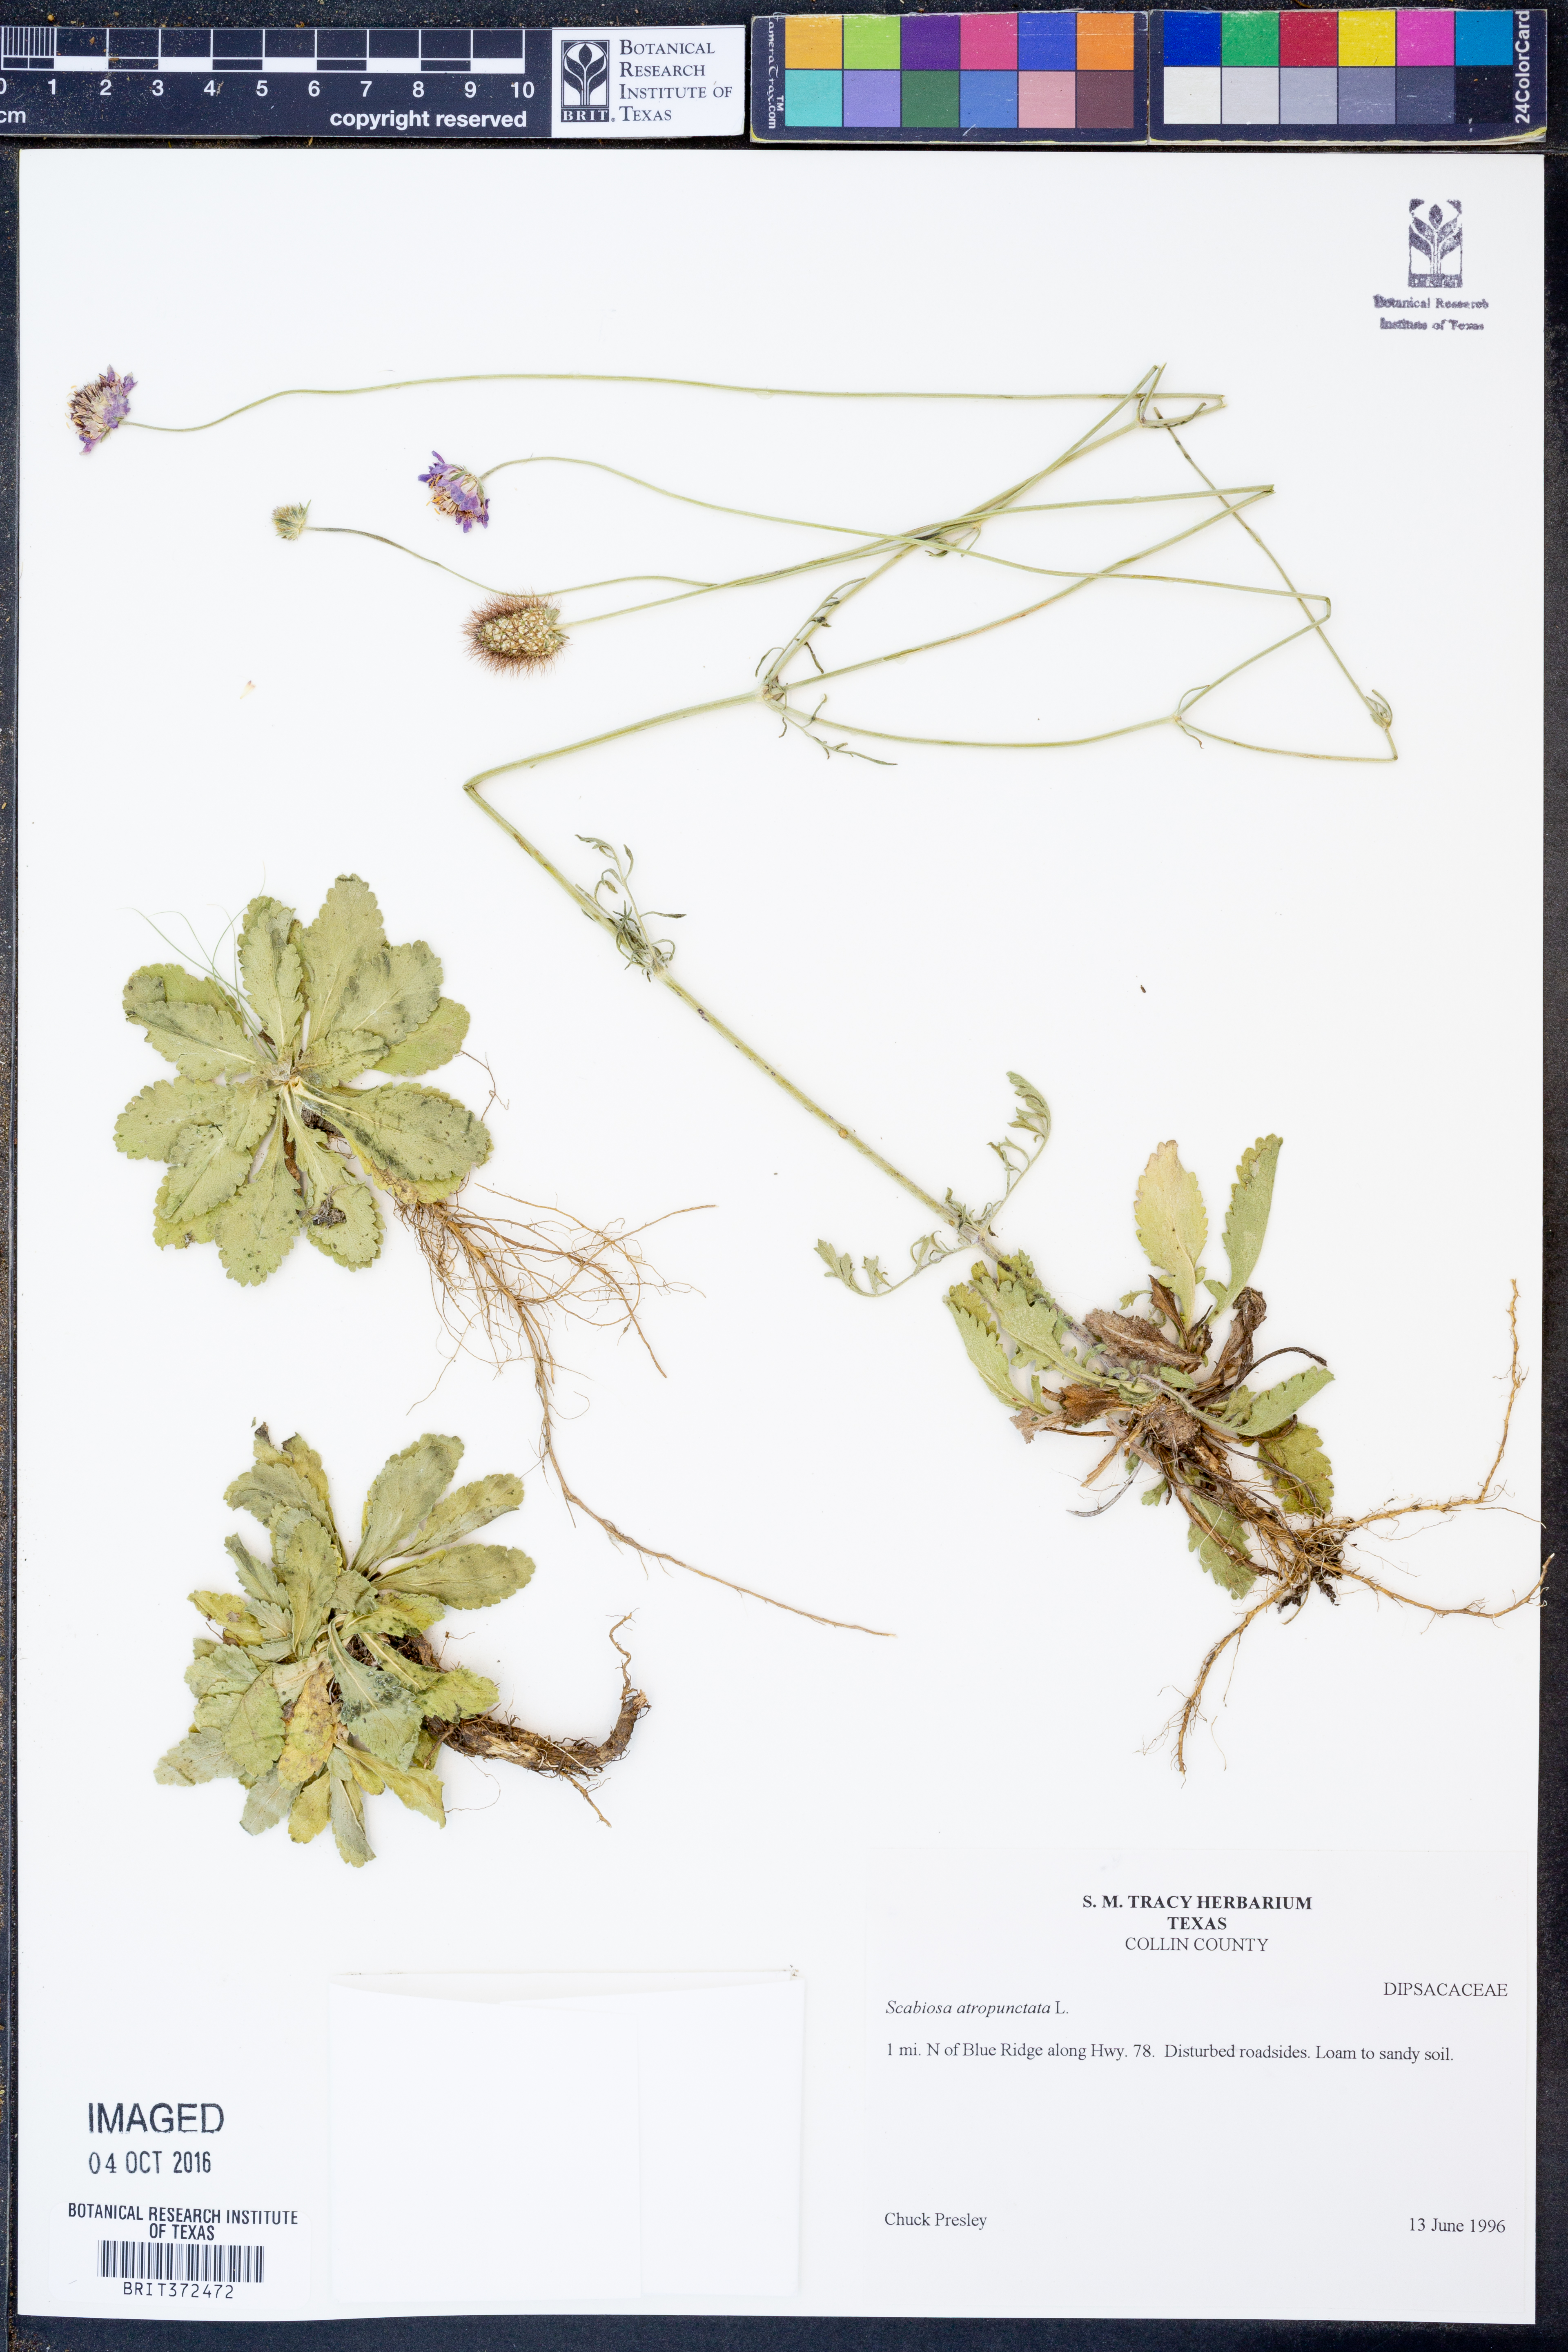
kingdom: Plantae
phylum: Tracheophyta
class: Magnoliopsida
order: Dipsacales
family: Caprifoliaceae
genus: Sixalix
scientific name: Sixalix atropurpurea
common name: Sweet scabious
